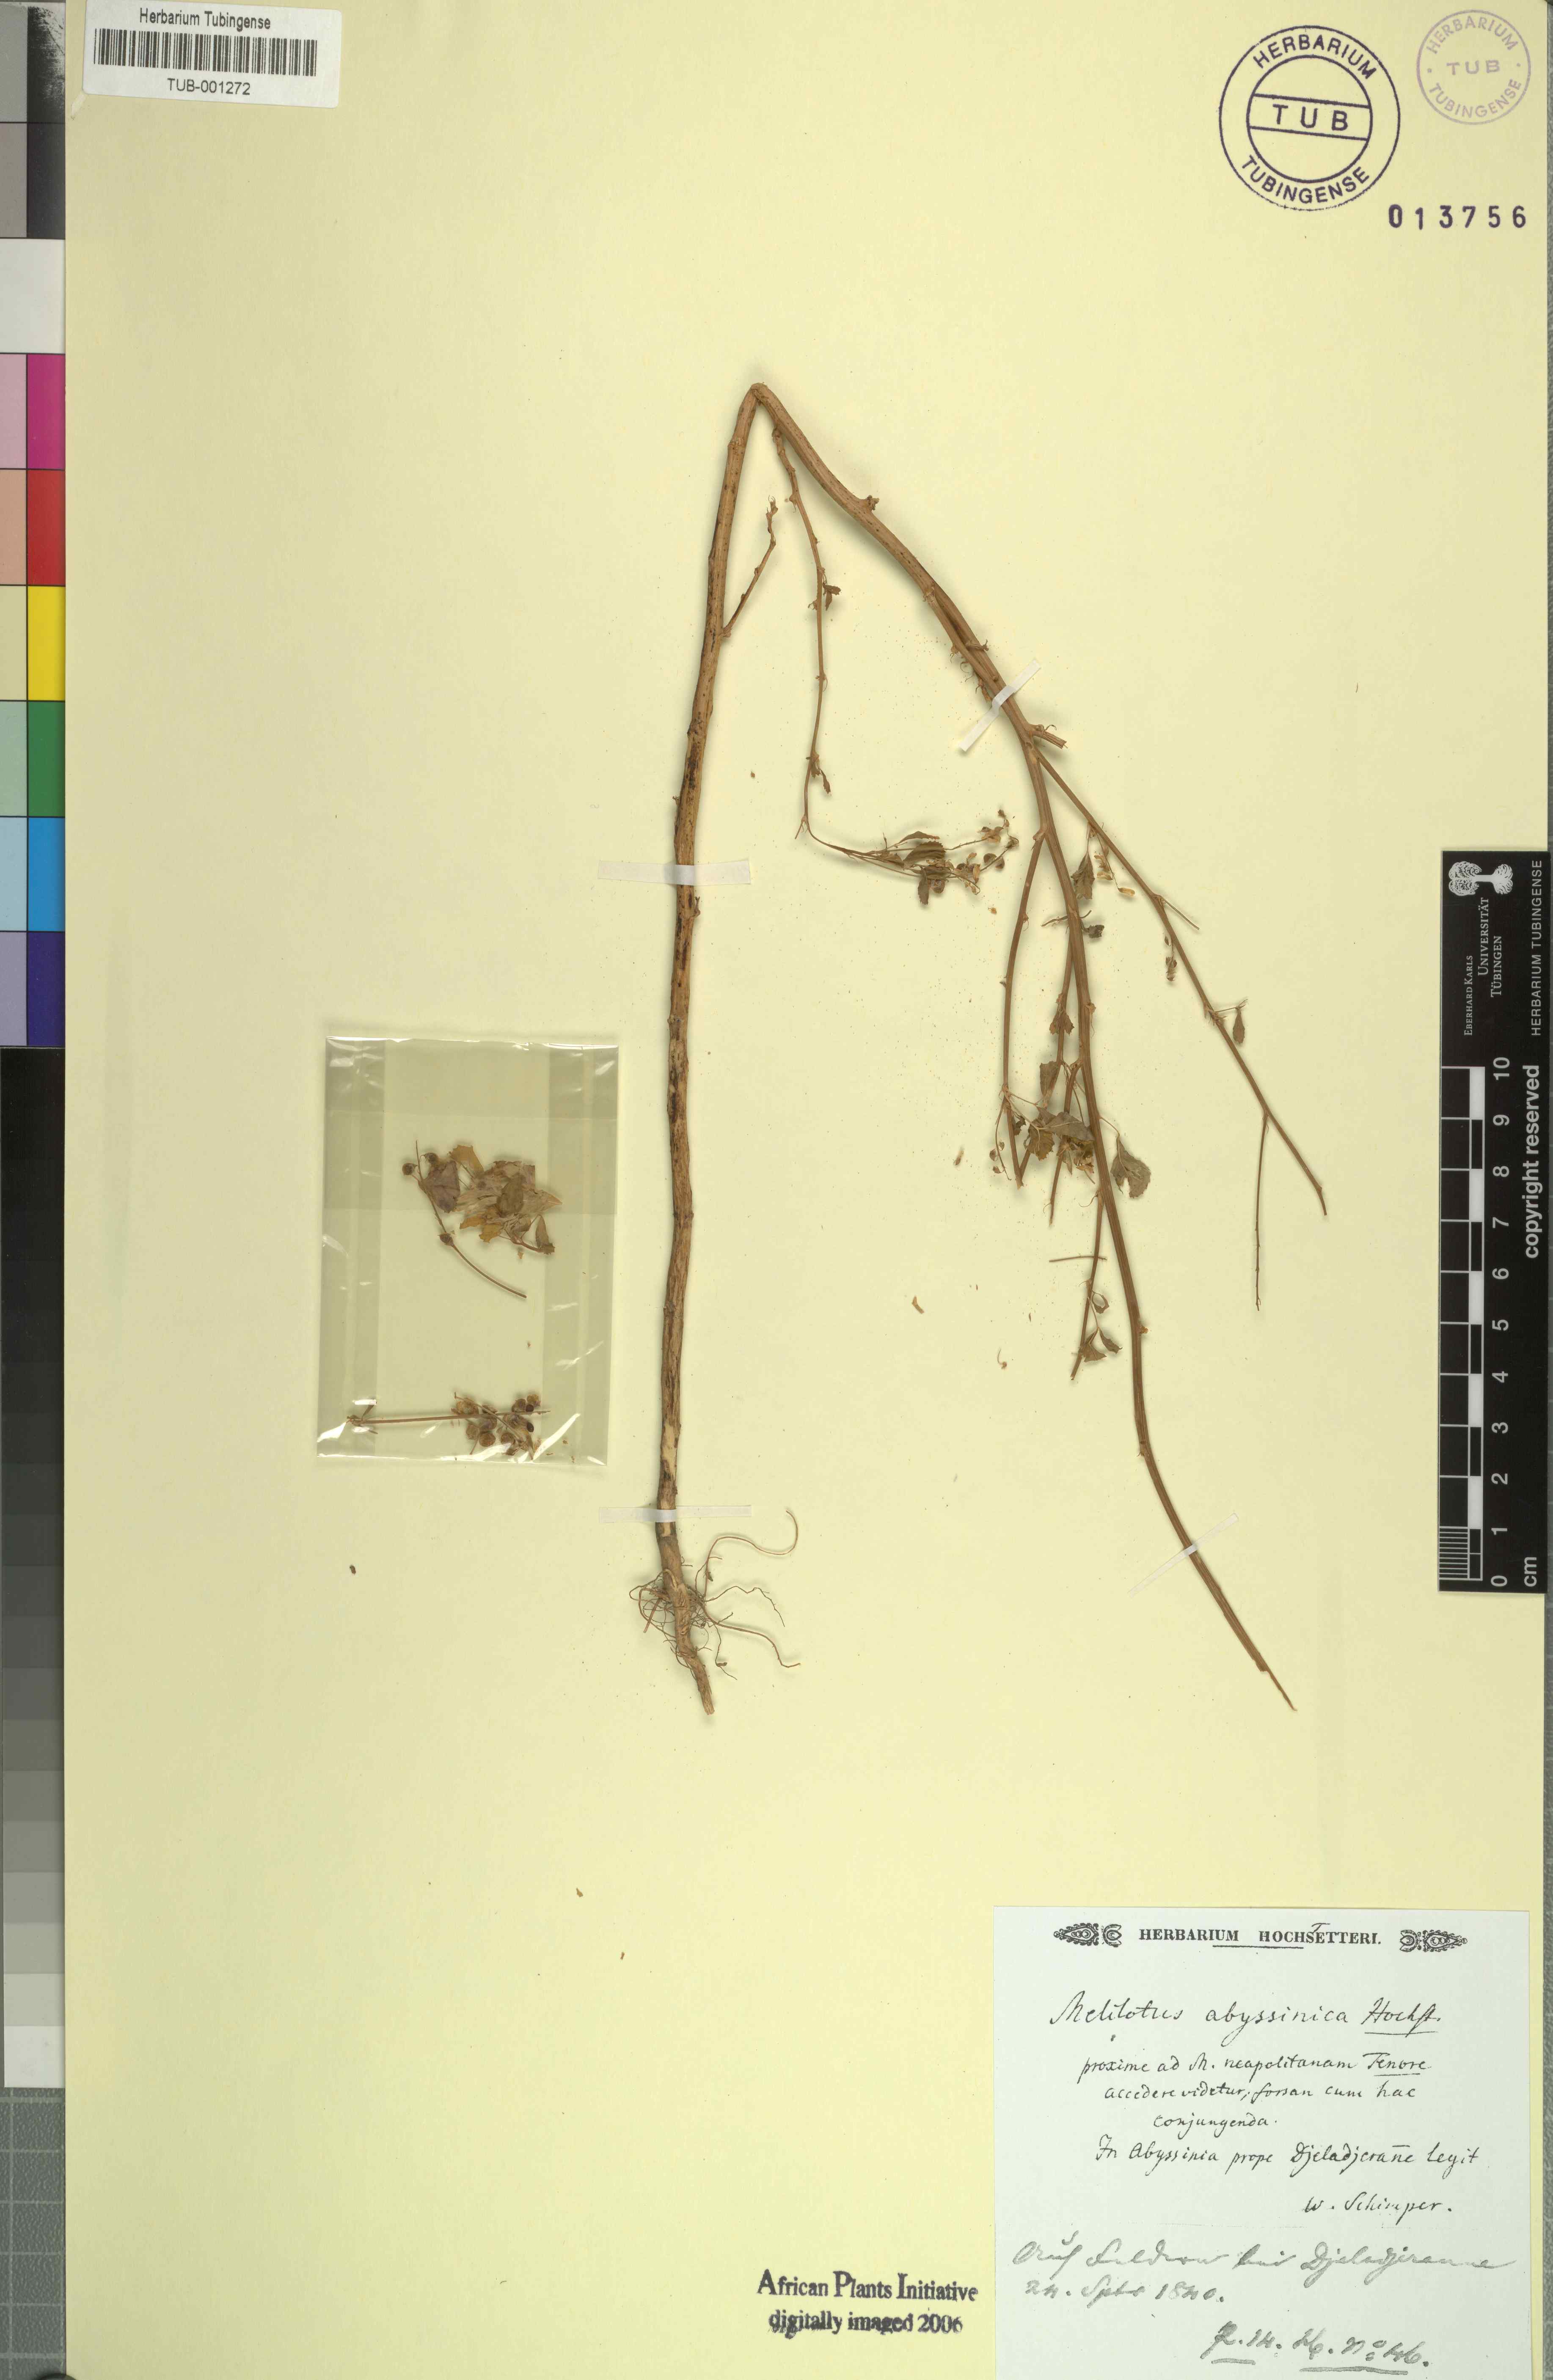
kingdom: Plantae
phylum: Tracheophyta
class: Magnoliopsida
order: Fabales
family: Fabaceae
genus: Melilotus
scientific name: Melilotus elegans
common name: Elegant sweet-clover
